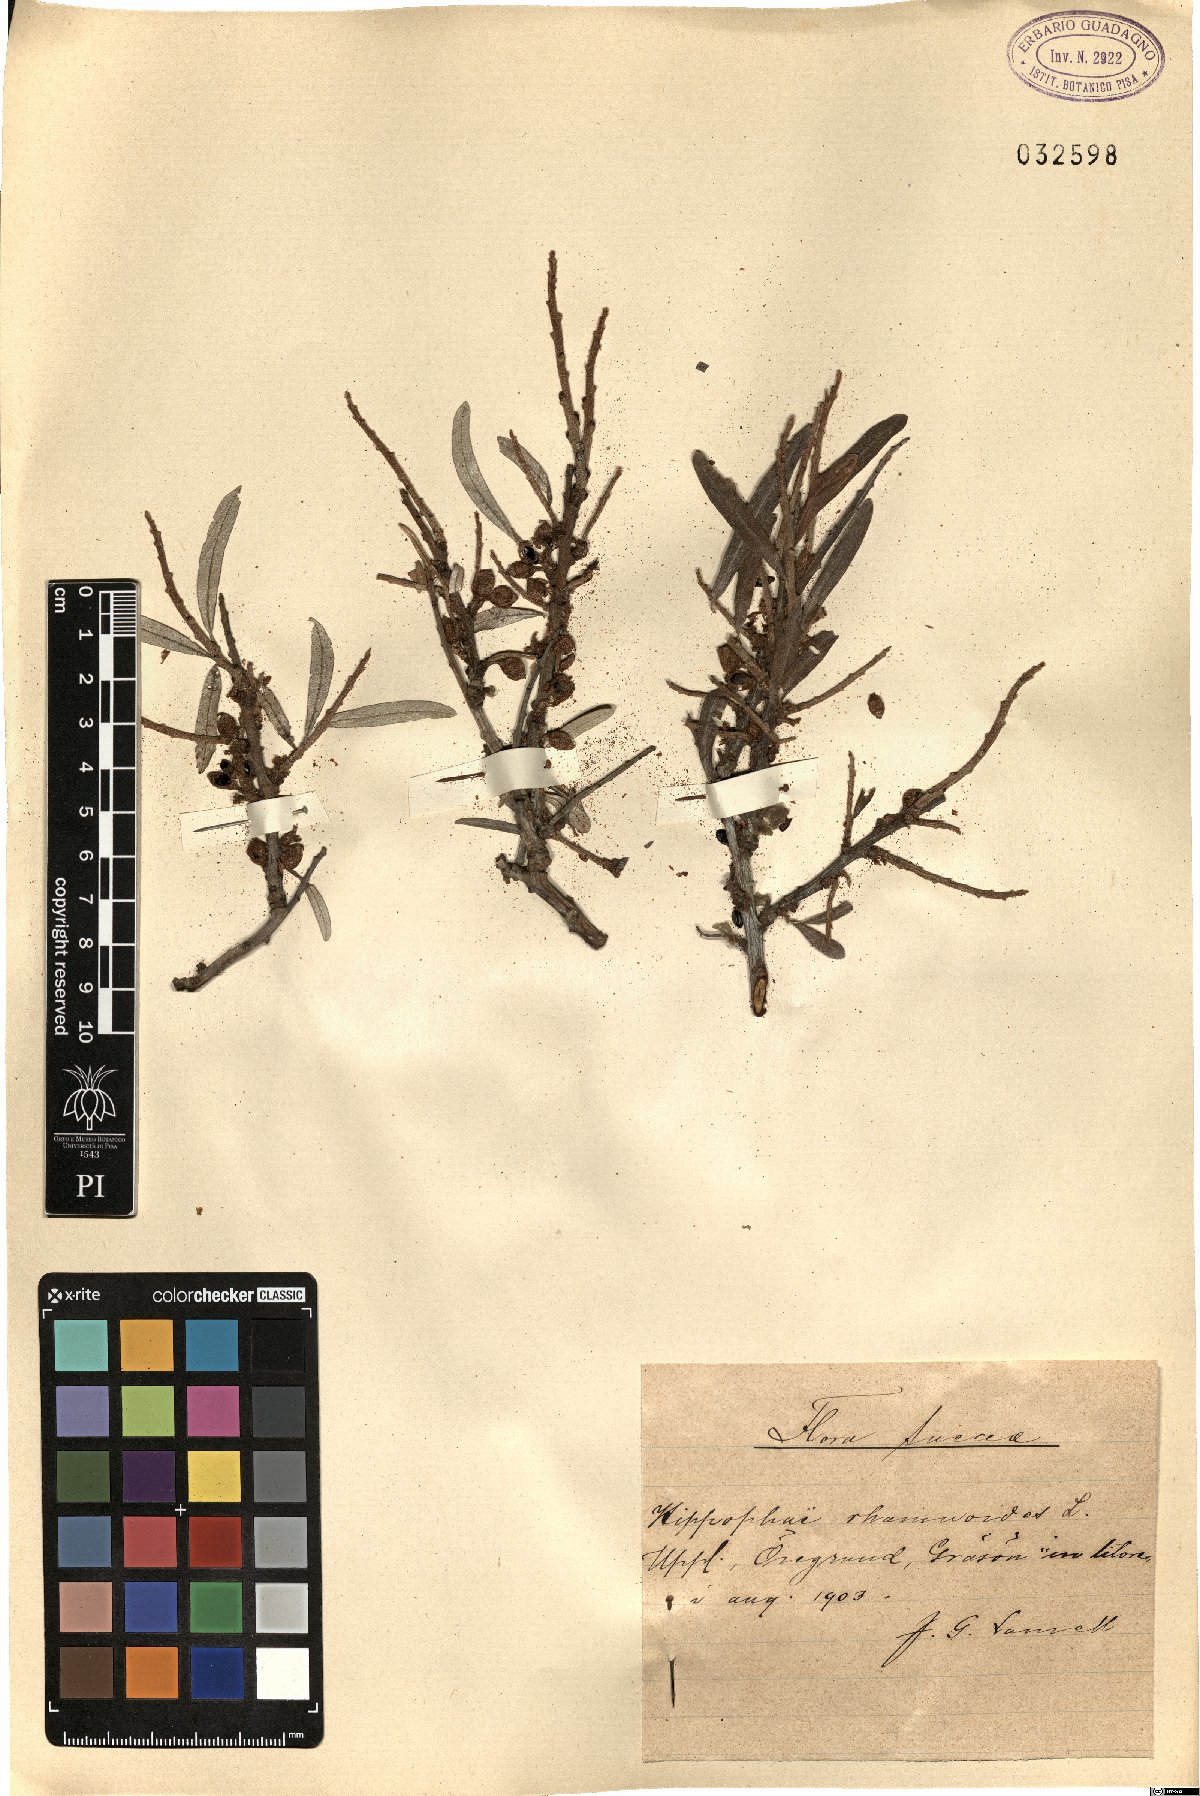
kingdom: Plantae
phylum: Tracheophyta
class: Magnoliopsida
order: Rosales
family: Elaeagnaceae
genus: Hippophae
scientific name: Hippophae rhamnoides
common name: Sea-buckthorn
